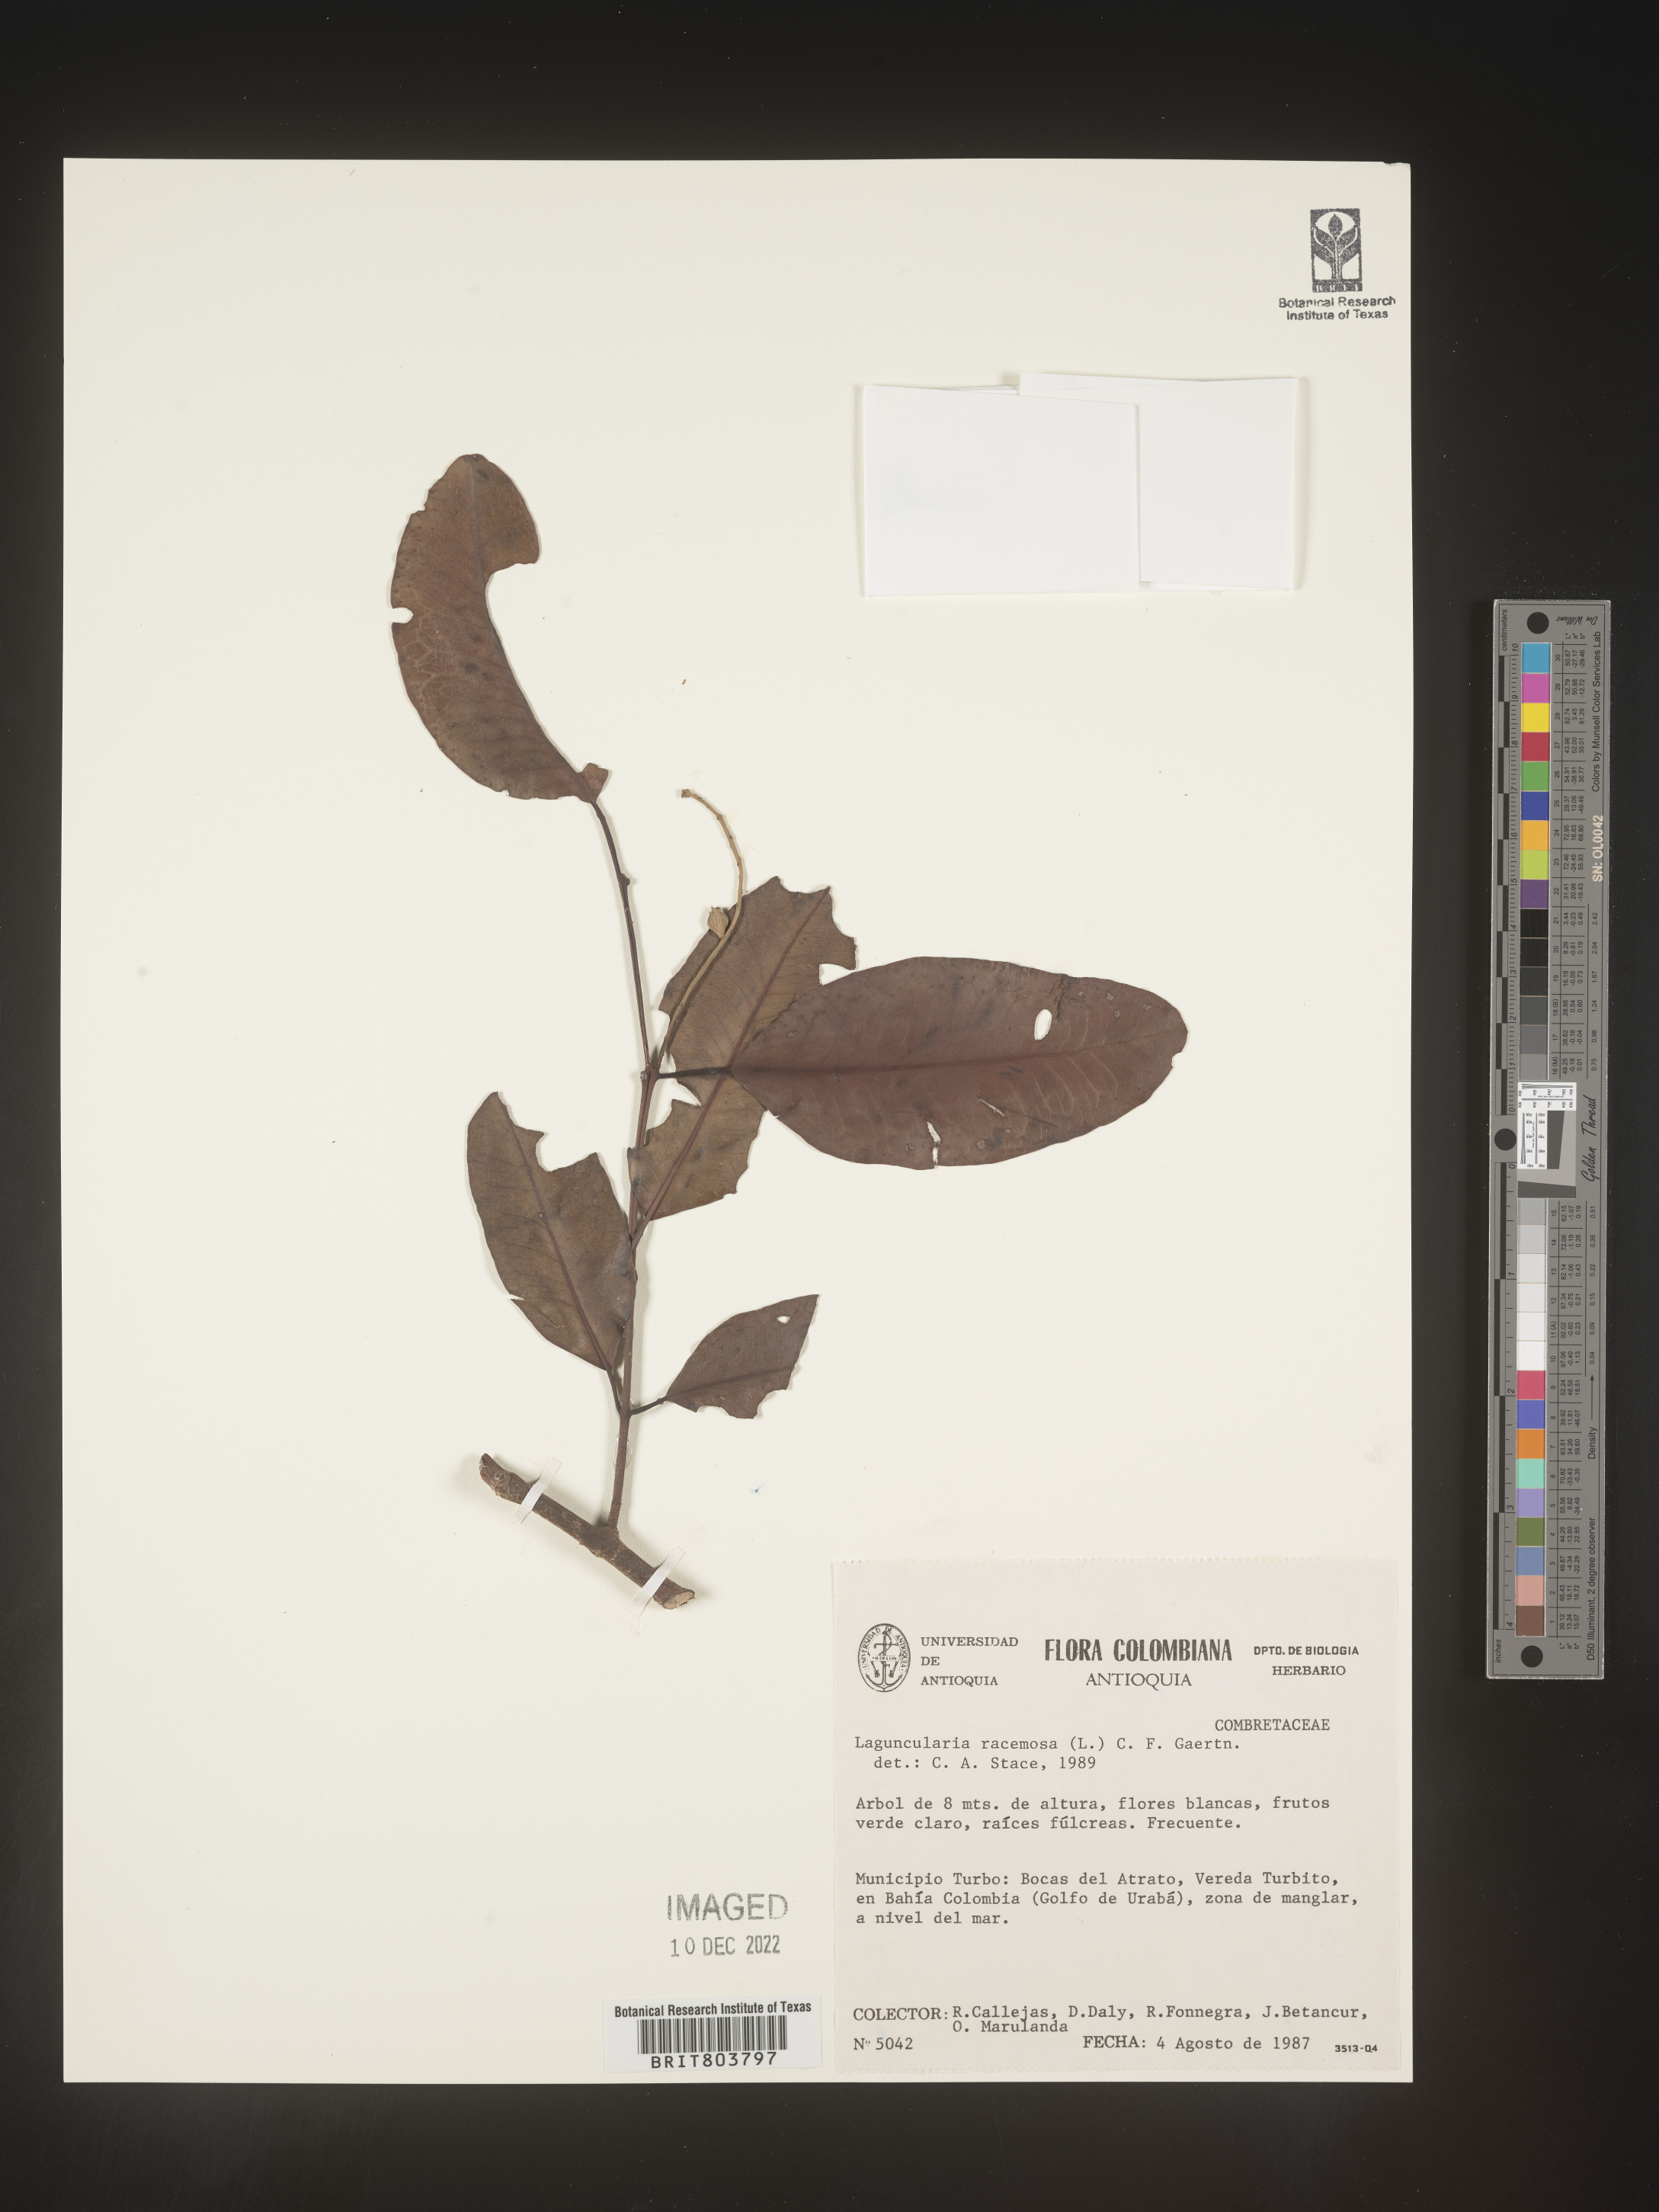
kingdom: Plantae
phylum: Tracheophyta
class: Magnoliopsida
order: Myrtales
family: Combretaceae
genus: Laguncularia
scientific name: Laguncularia
